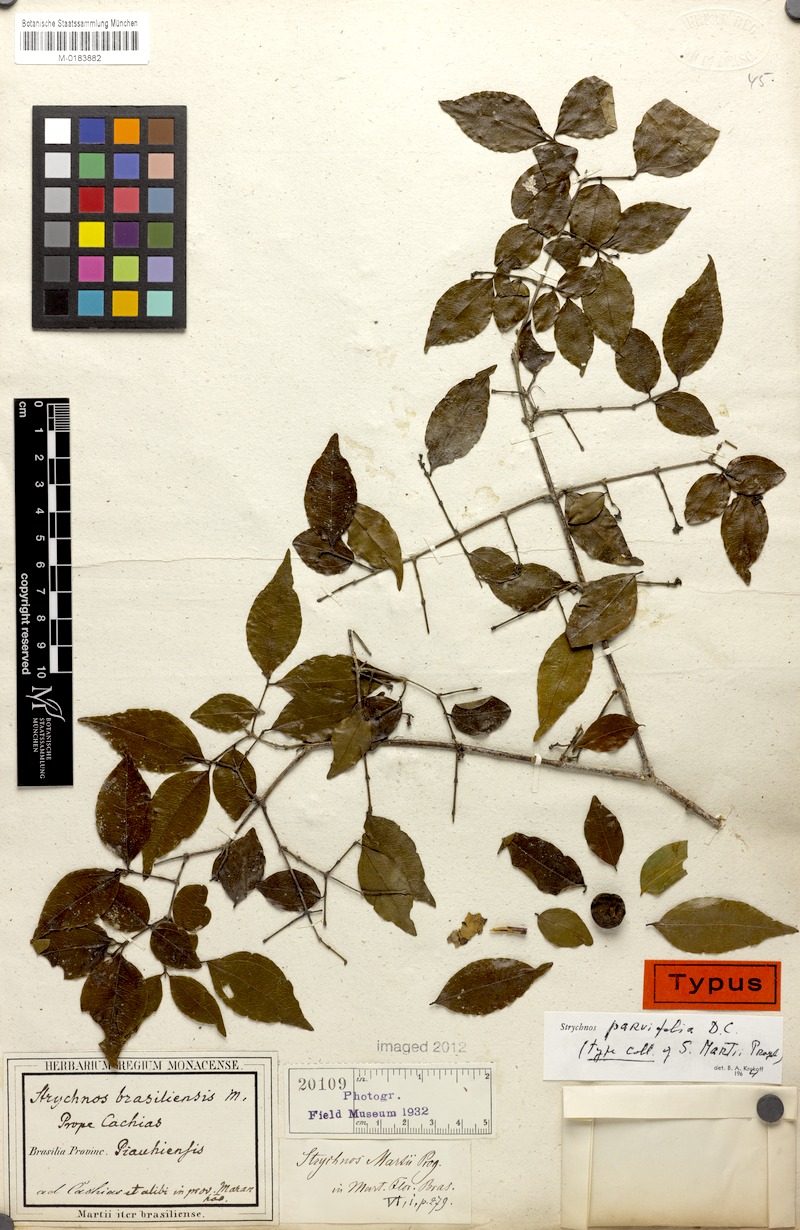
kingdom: Plantae
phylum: Tracheophyta
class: Magnoliopsida
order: Gentianales
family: Loganiaceae
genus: Strychnos
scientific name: Strychnos parvifolia
